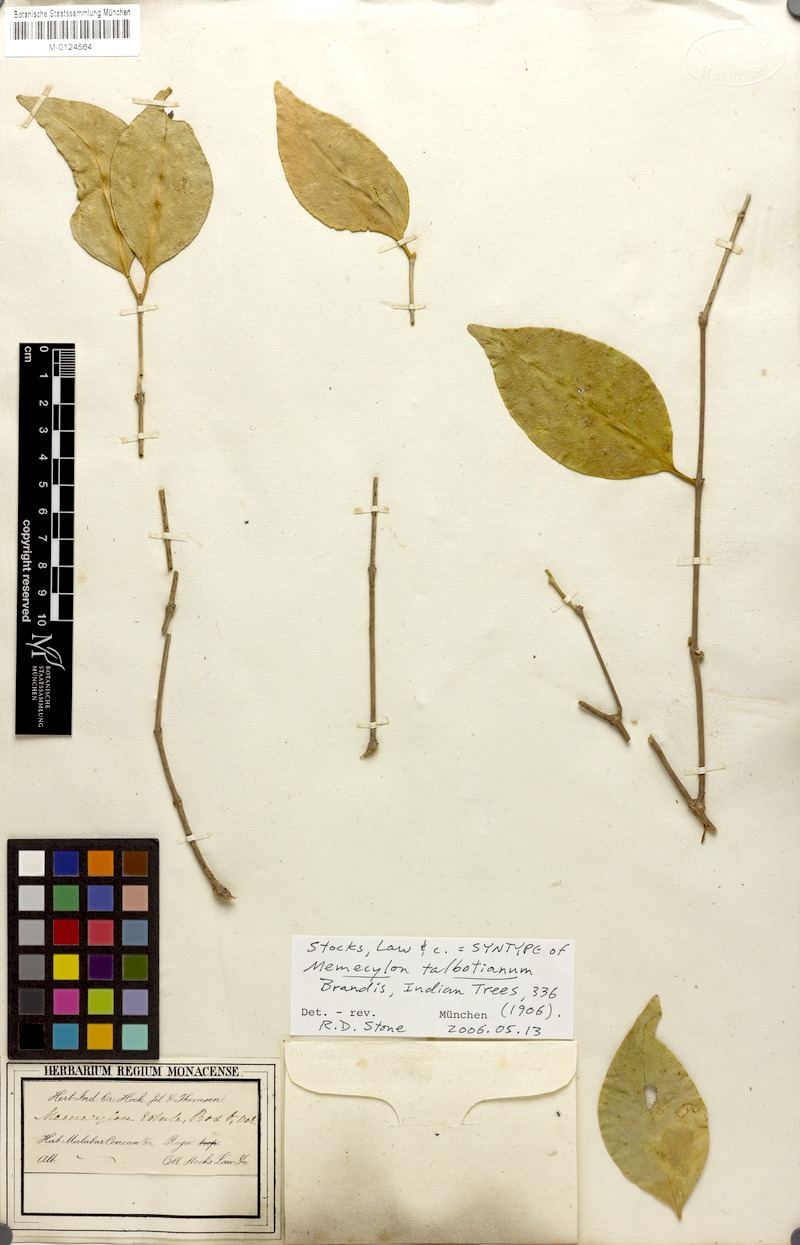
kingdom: Plantae
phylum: Tracheophyta
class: Magnoliopsida
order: Myrtales
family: Melastomataceae
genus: Memecylon
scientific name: Memecylon talbotianum
